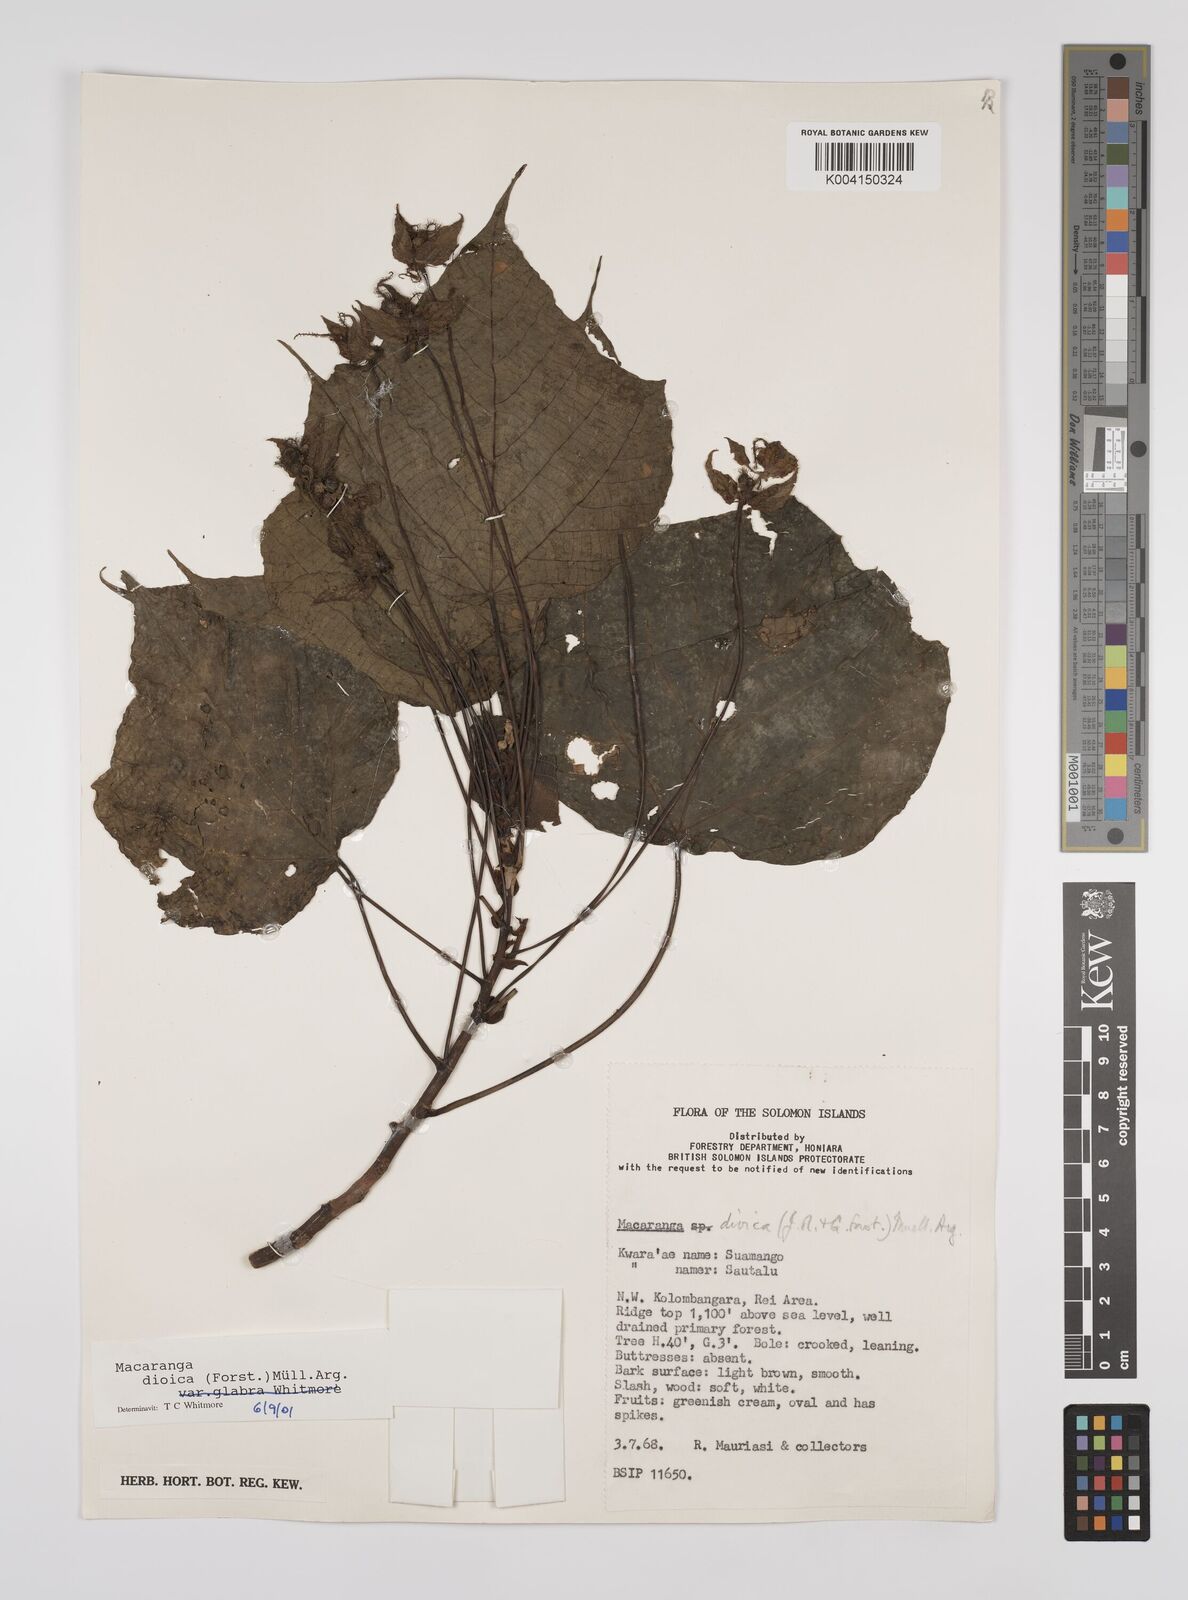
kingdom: Plantae
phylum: Tracheophyta
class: Magnoliopsida
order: Malpighiales
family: Euphorbiaceae
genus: Macaranga
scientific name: Macaranga dioica
